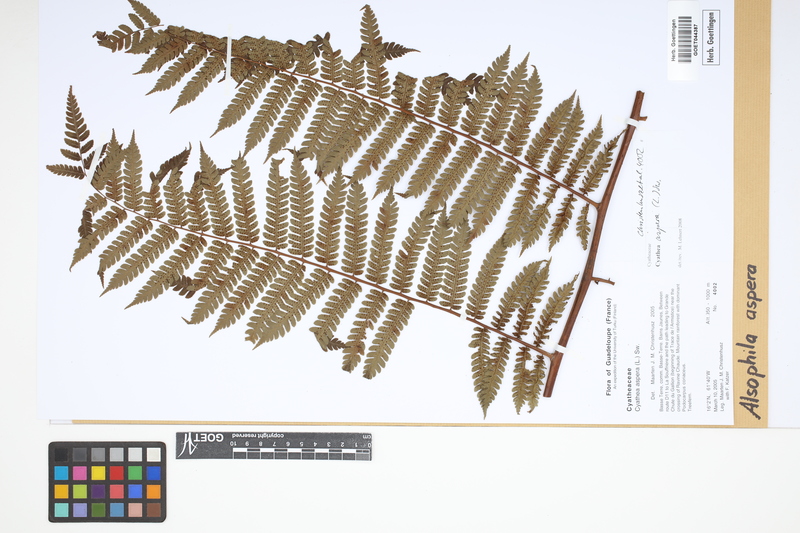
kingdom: Plantae
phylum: Tracheophyta
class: Polypodiopsida
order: Cyatheales
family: Cyatheaceae
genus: Cyathea
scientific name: Cyathea aspera
